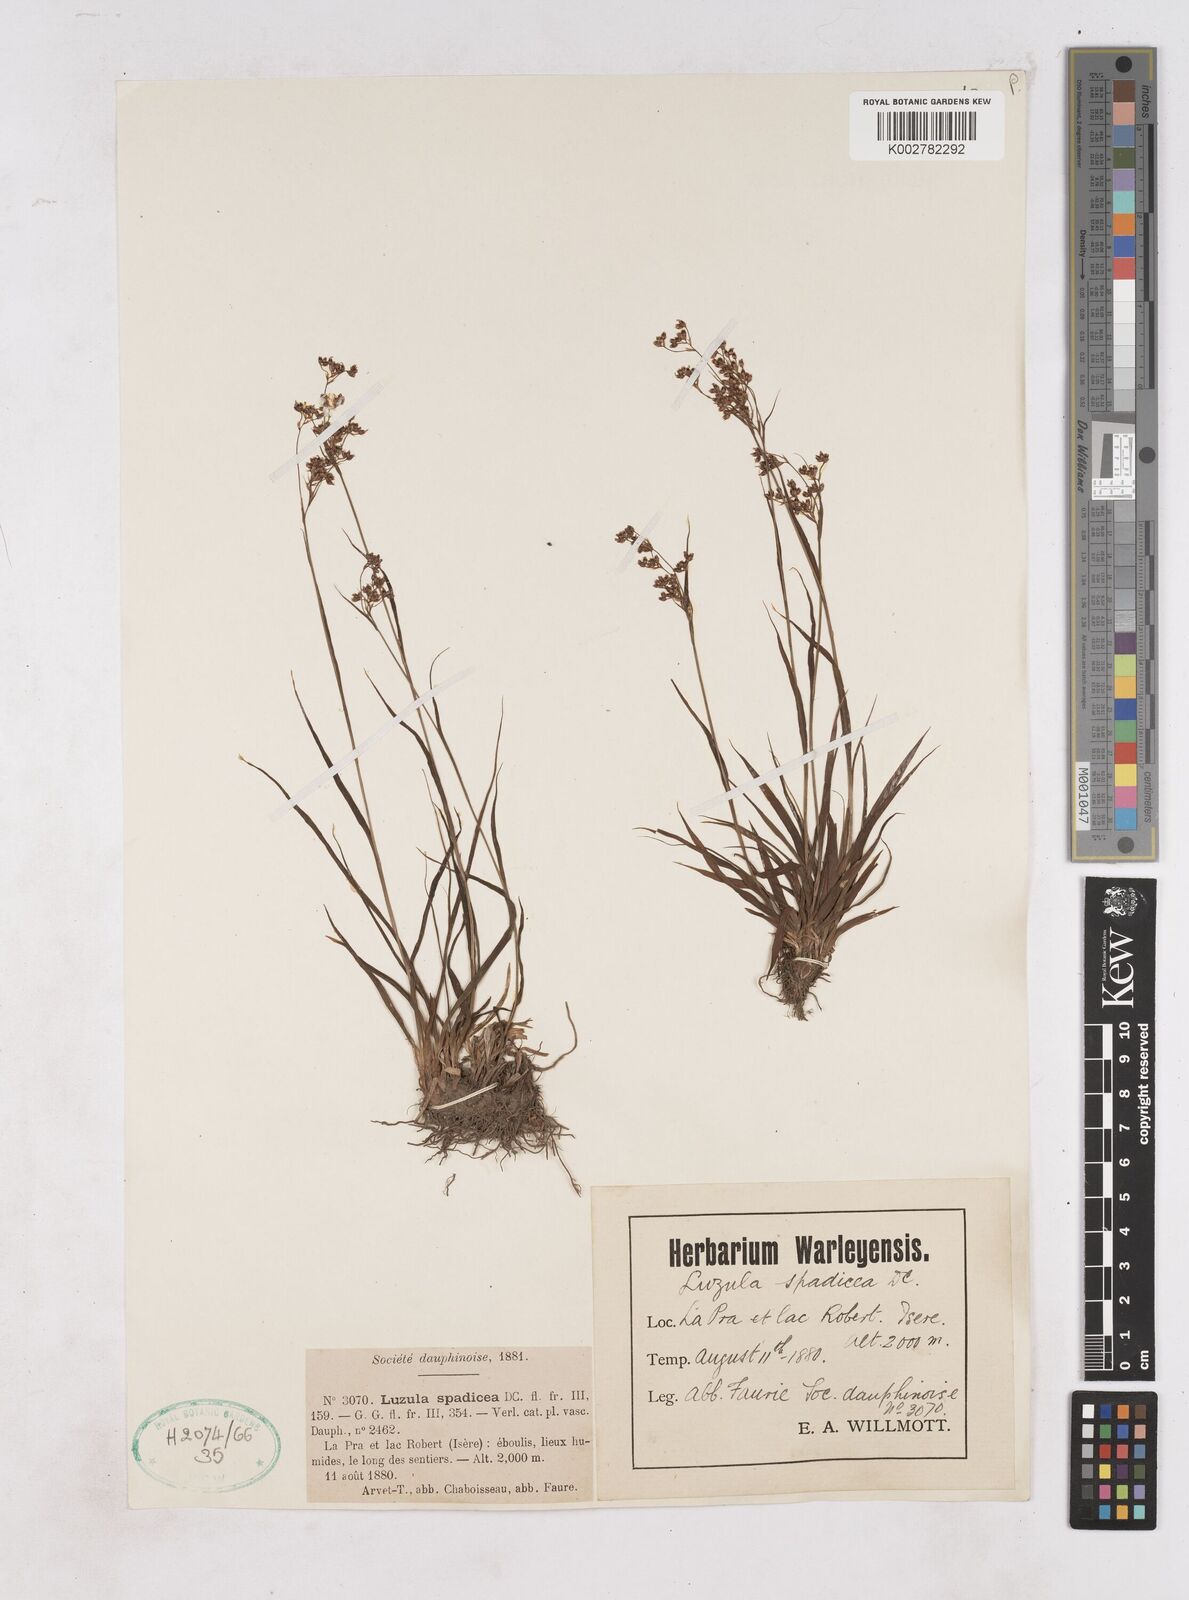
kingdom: Plantae
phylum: Tracheophyta
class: Liliopsida
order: Poales
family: Juncaceae
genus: Luzula
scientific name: Luzula alpinopilosa
